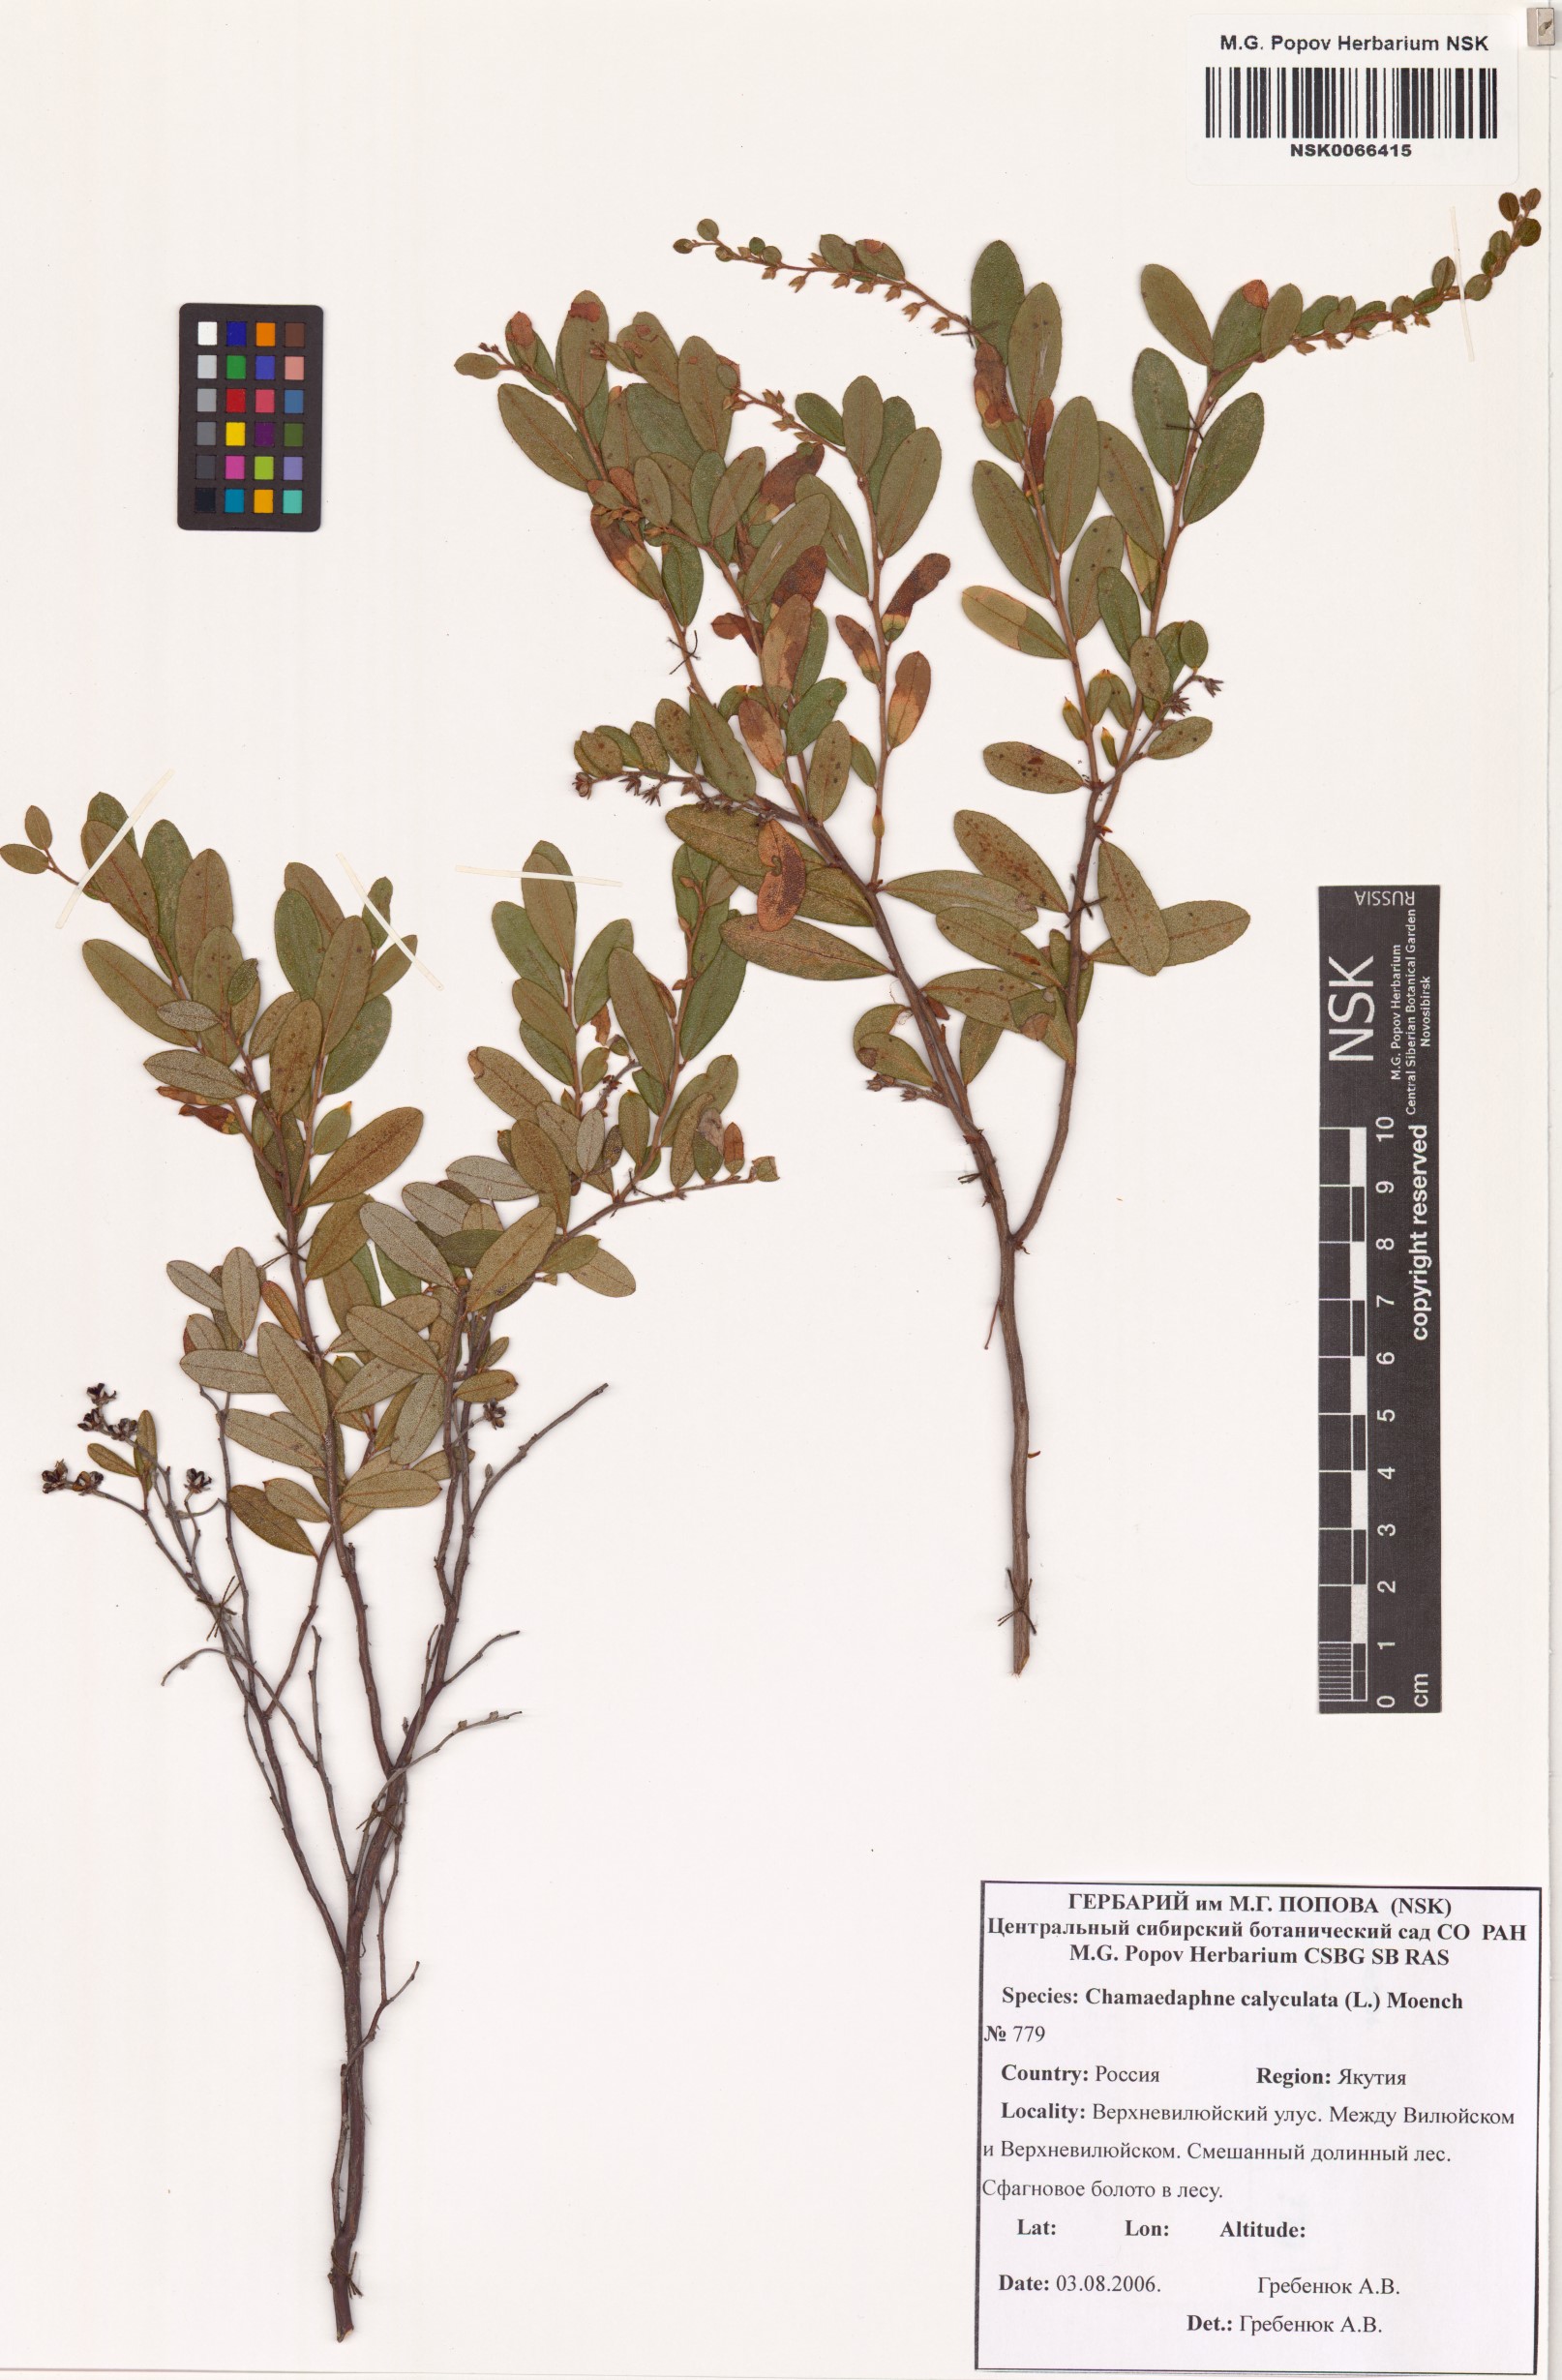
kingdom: Plantae
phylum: Tracheophyta
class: Magnoliopsida
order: Ericales
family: Ericaceae
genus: Chamaedaphne
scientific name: Chamaedaphne calyculata
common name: Leatherleaf
